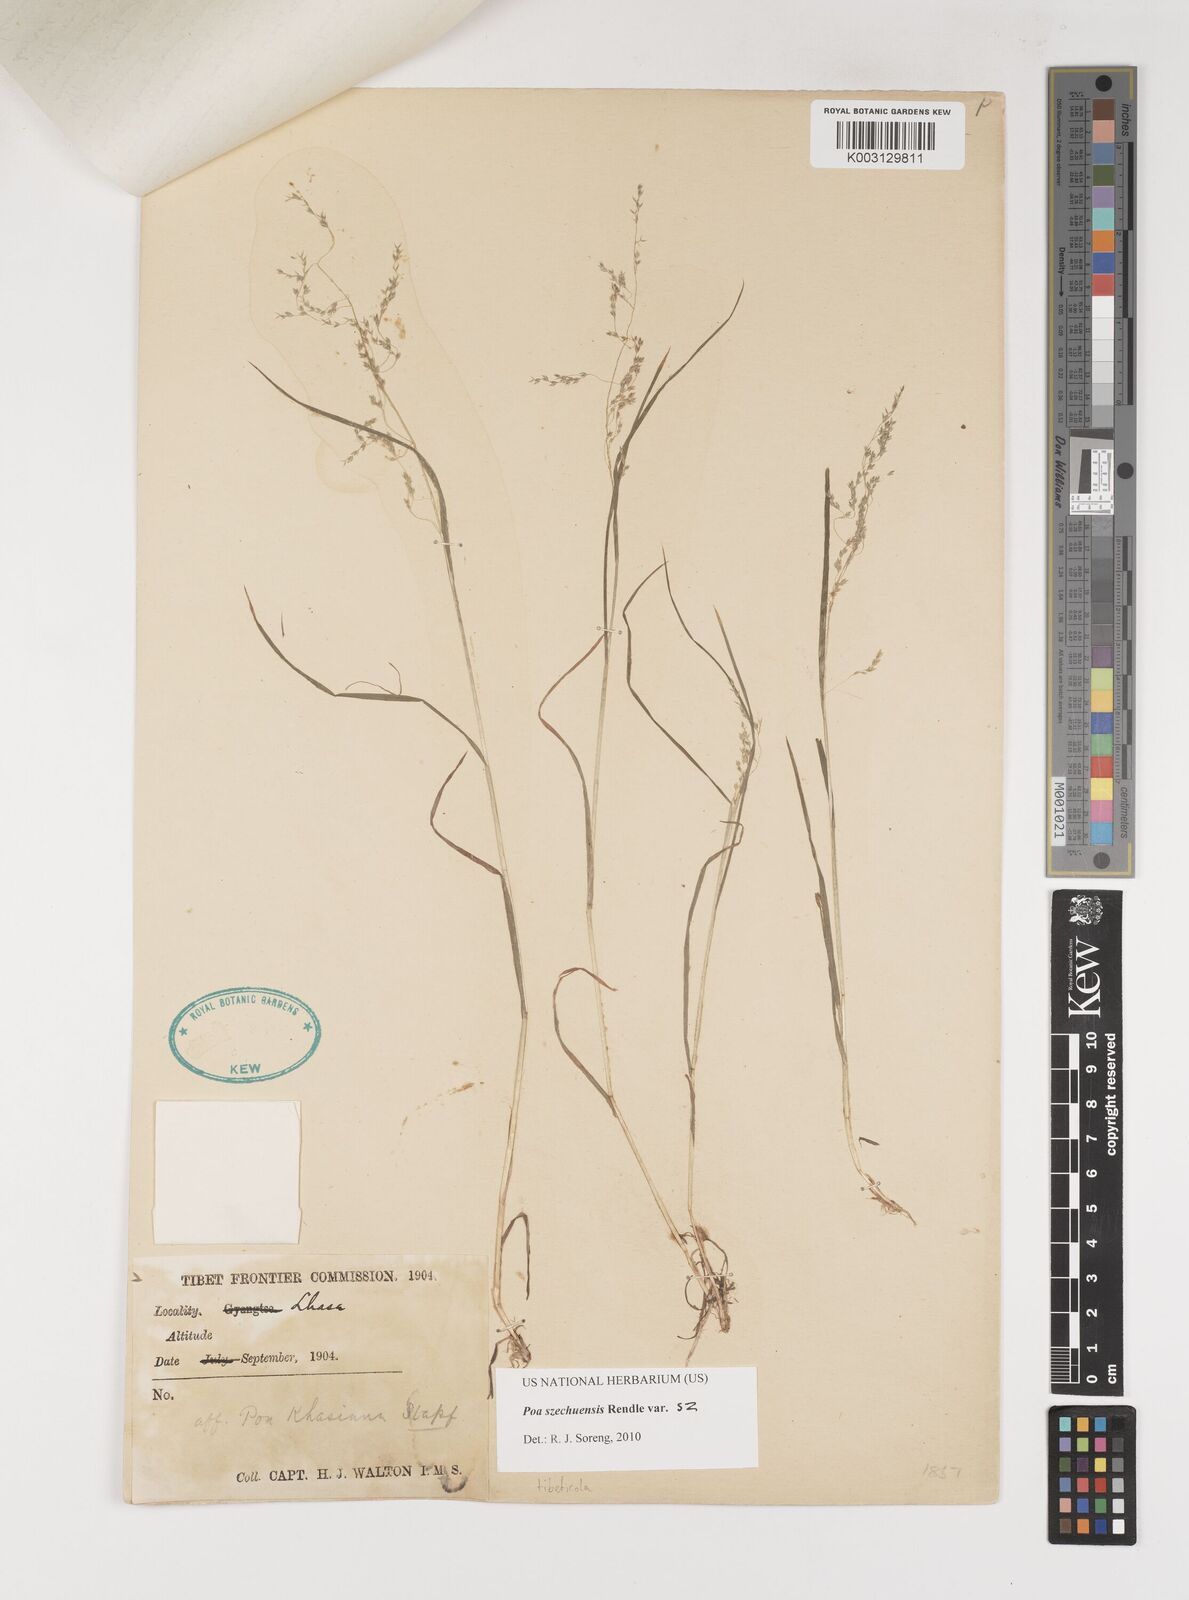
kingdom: Plantae
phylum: Tracheophyta
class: Liliopsida
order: Poales
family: Poaceae
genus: Poa
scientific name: Poa szechuensis
